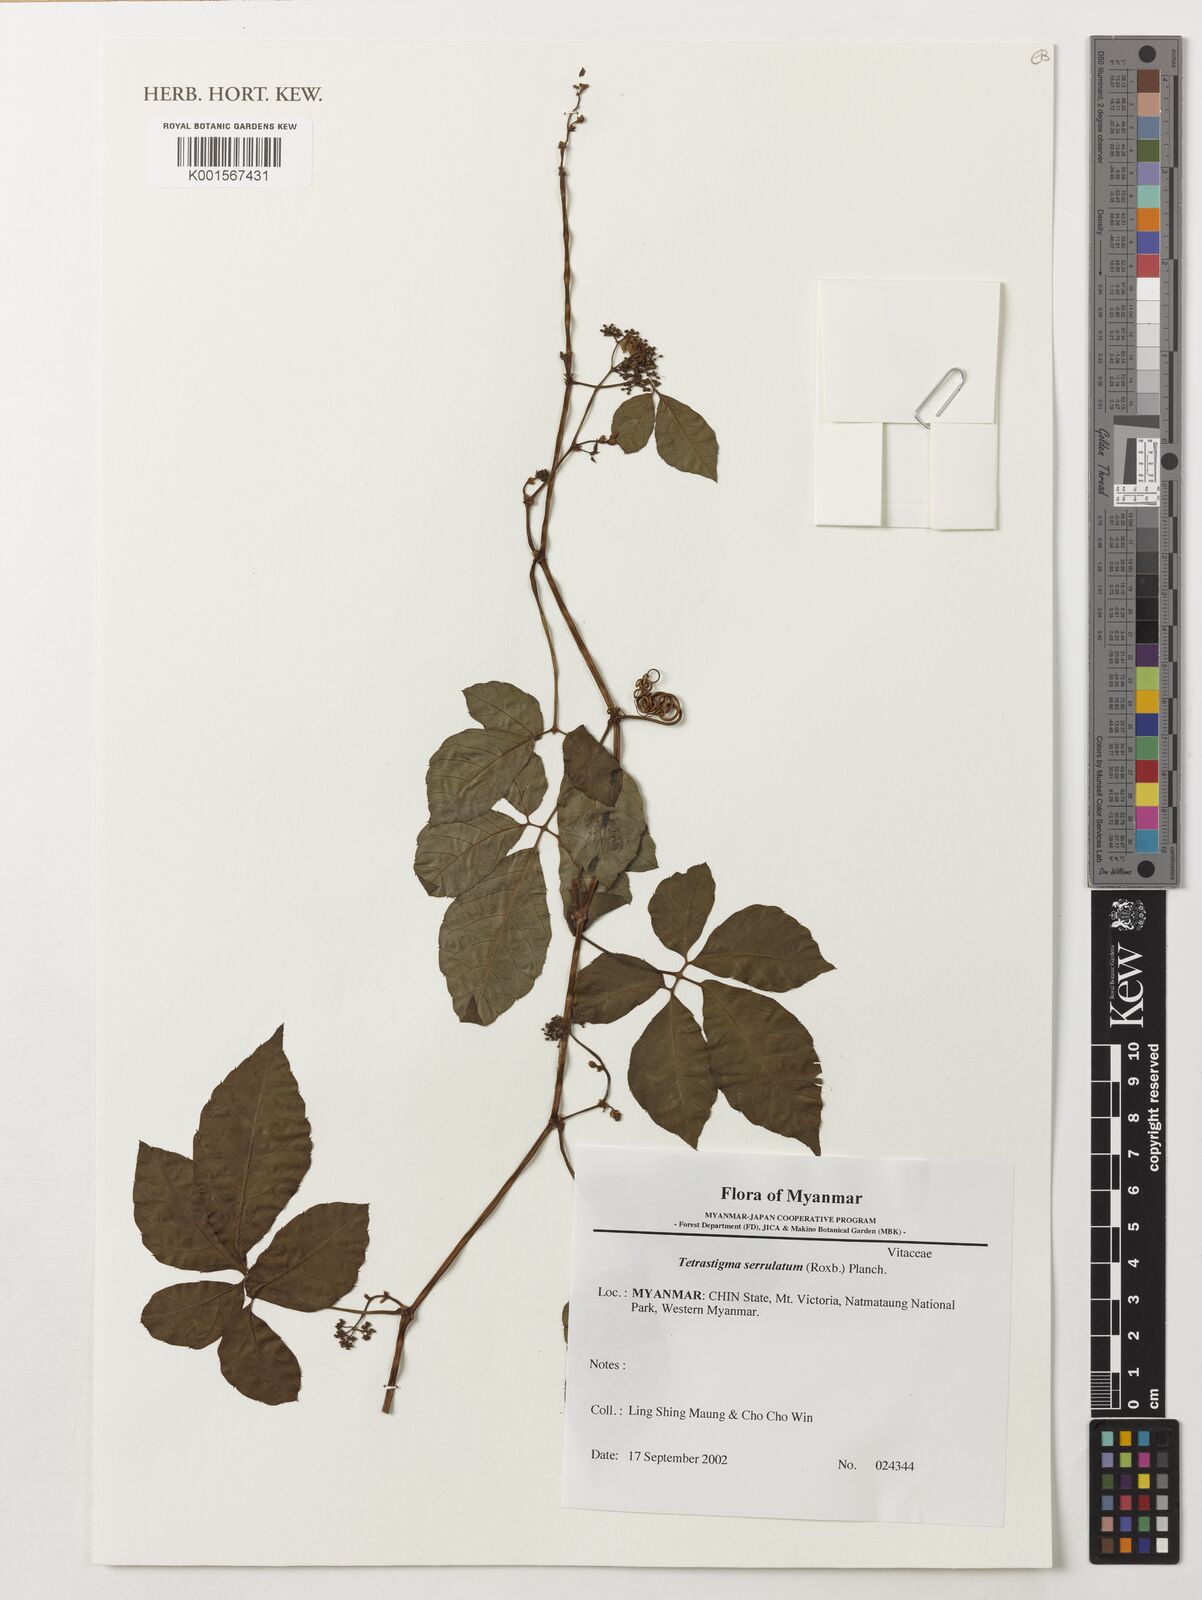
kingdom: Plantae
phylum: Tracheophyta
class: Magnoliopsida
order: Vitales
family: Vitaceae
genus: Tetrastigma
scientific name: Tetrastigma serrulatum
